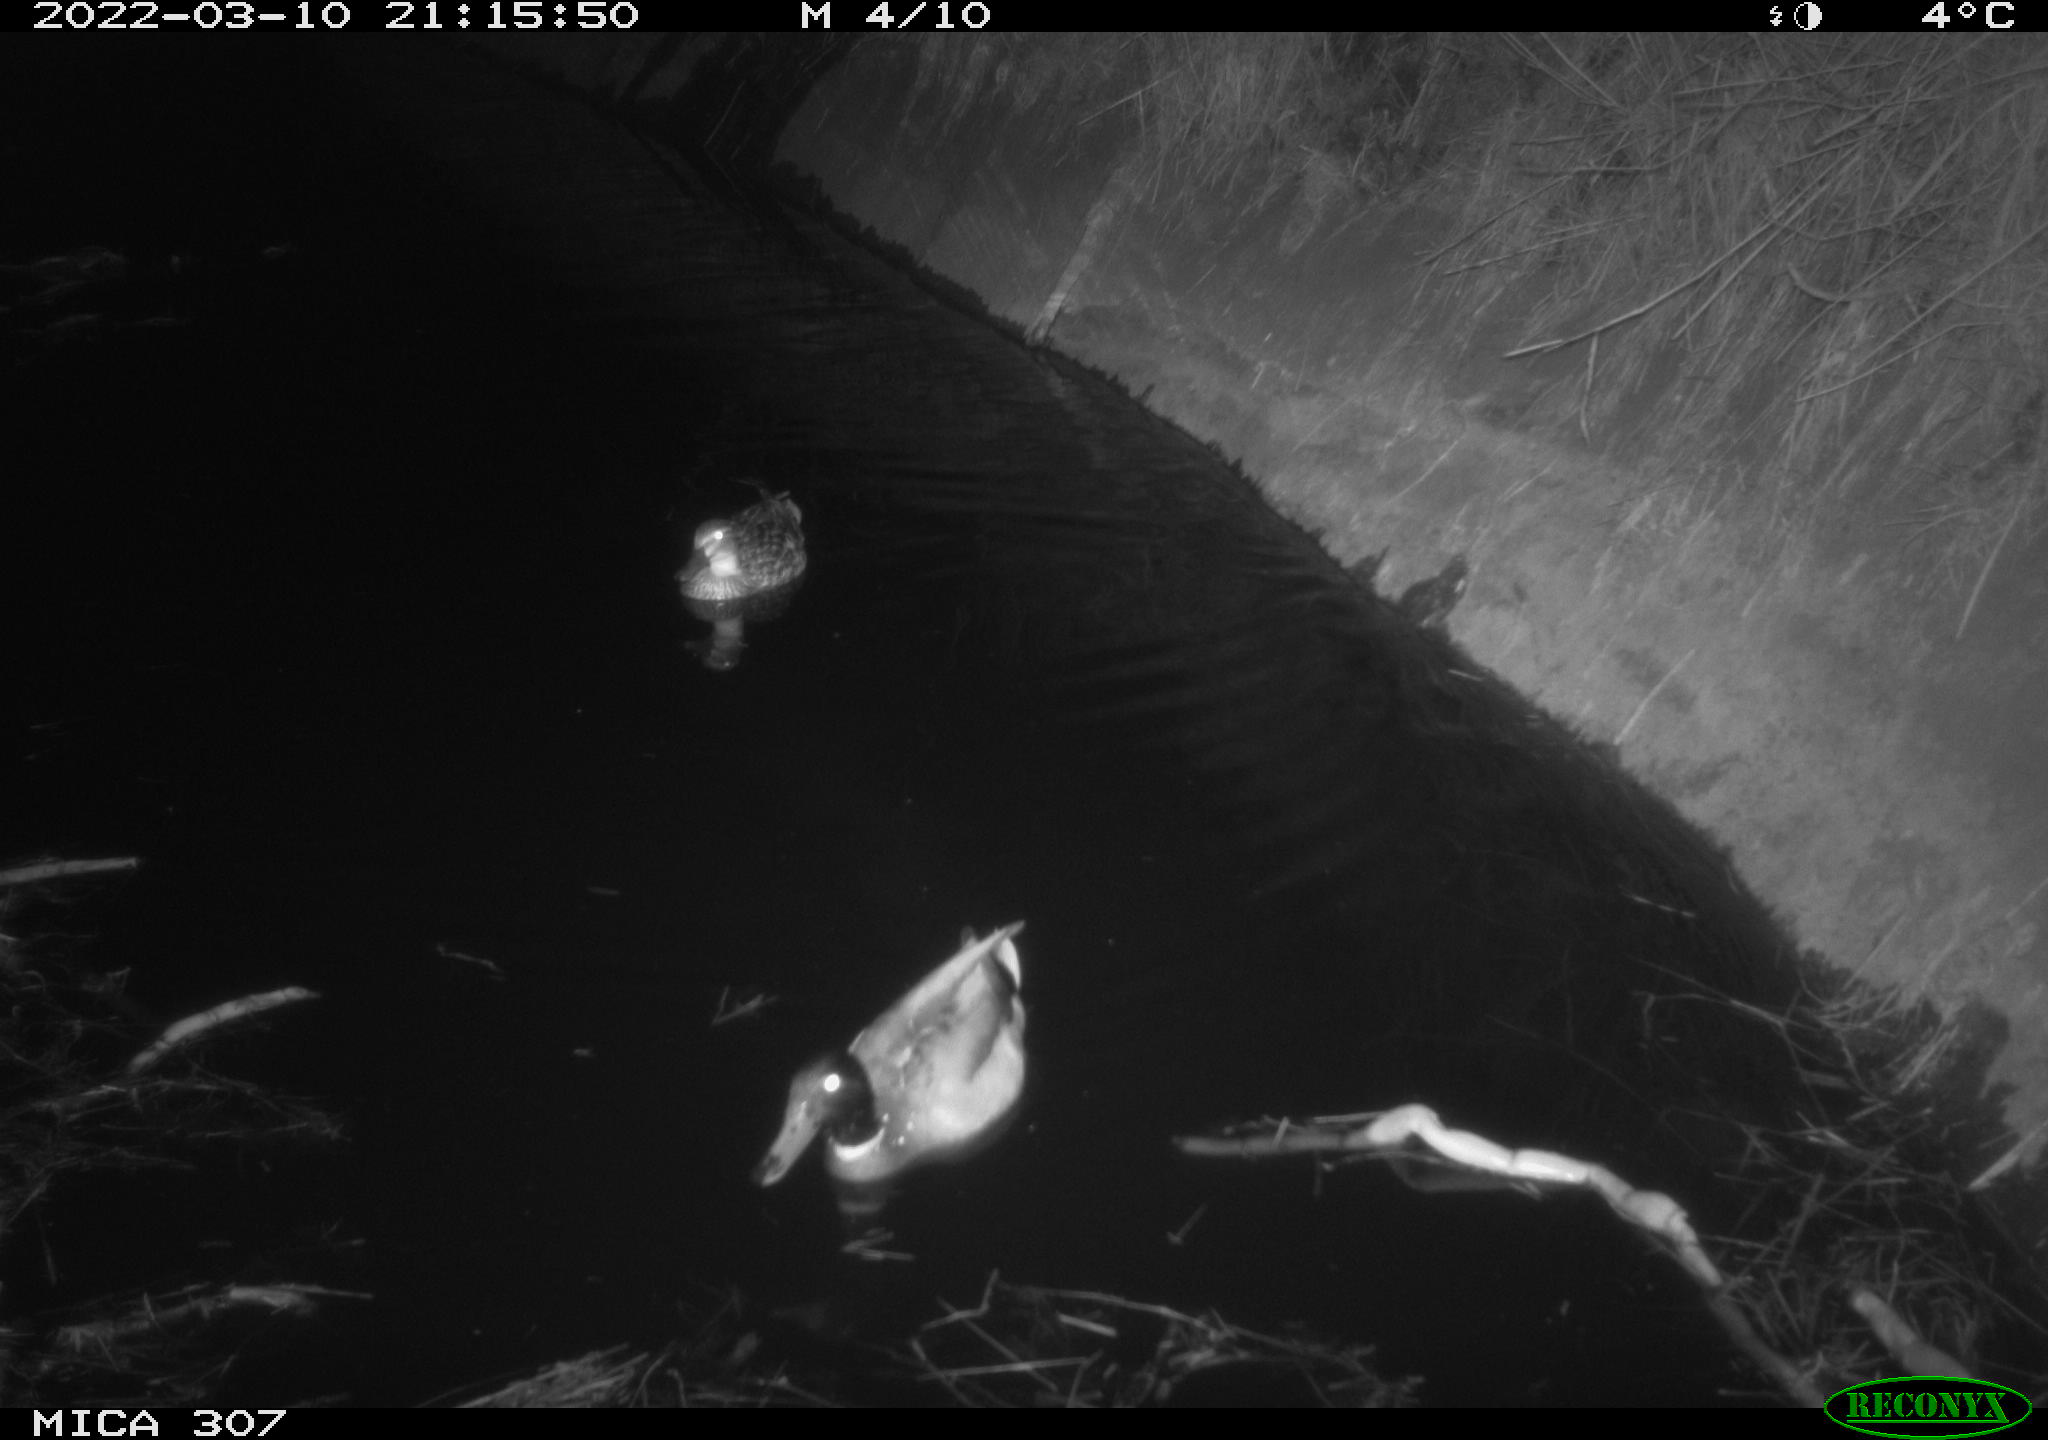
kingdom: Animalia
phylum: Chordata
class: Aves
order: Anseriformes
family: Anatidae
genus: Anas
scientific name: Anas platyrhynchos
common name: Mallard
